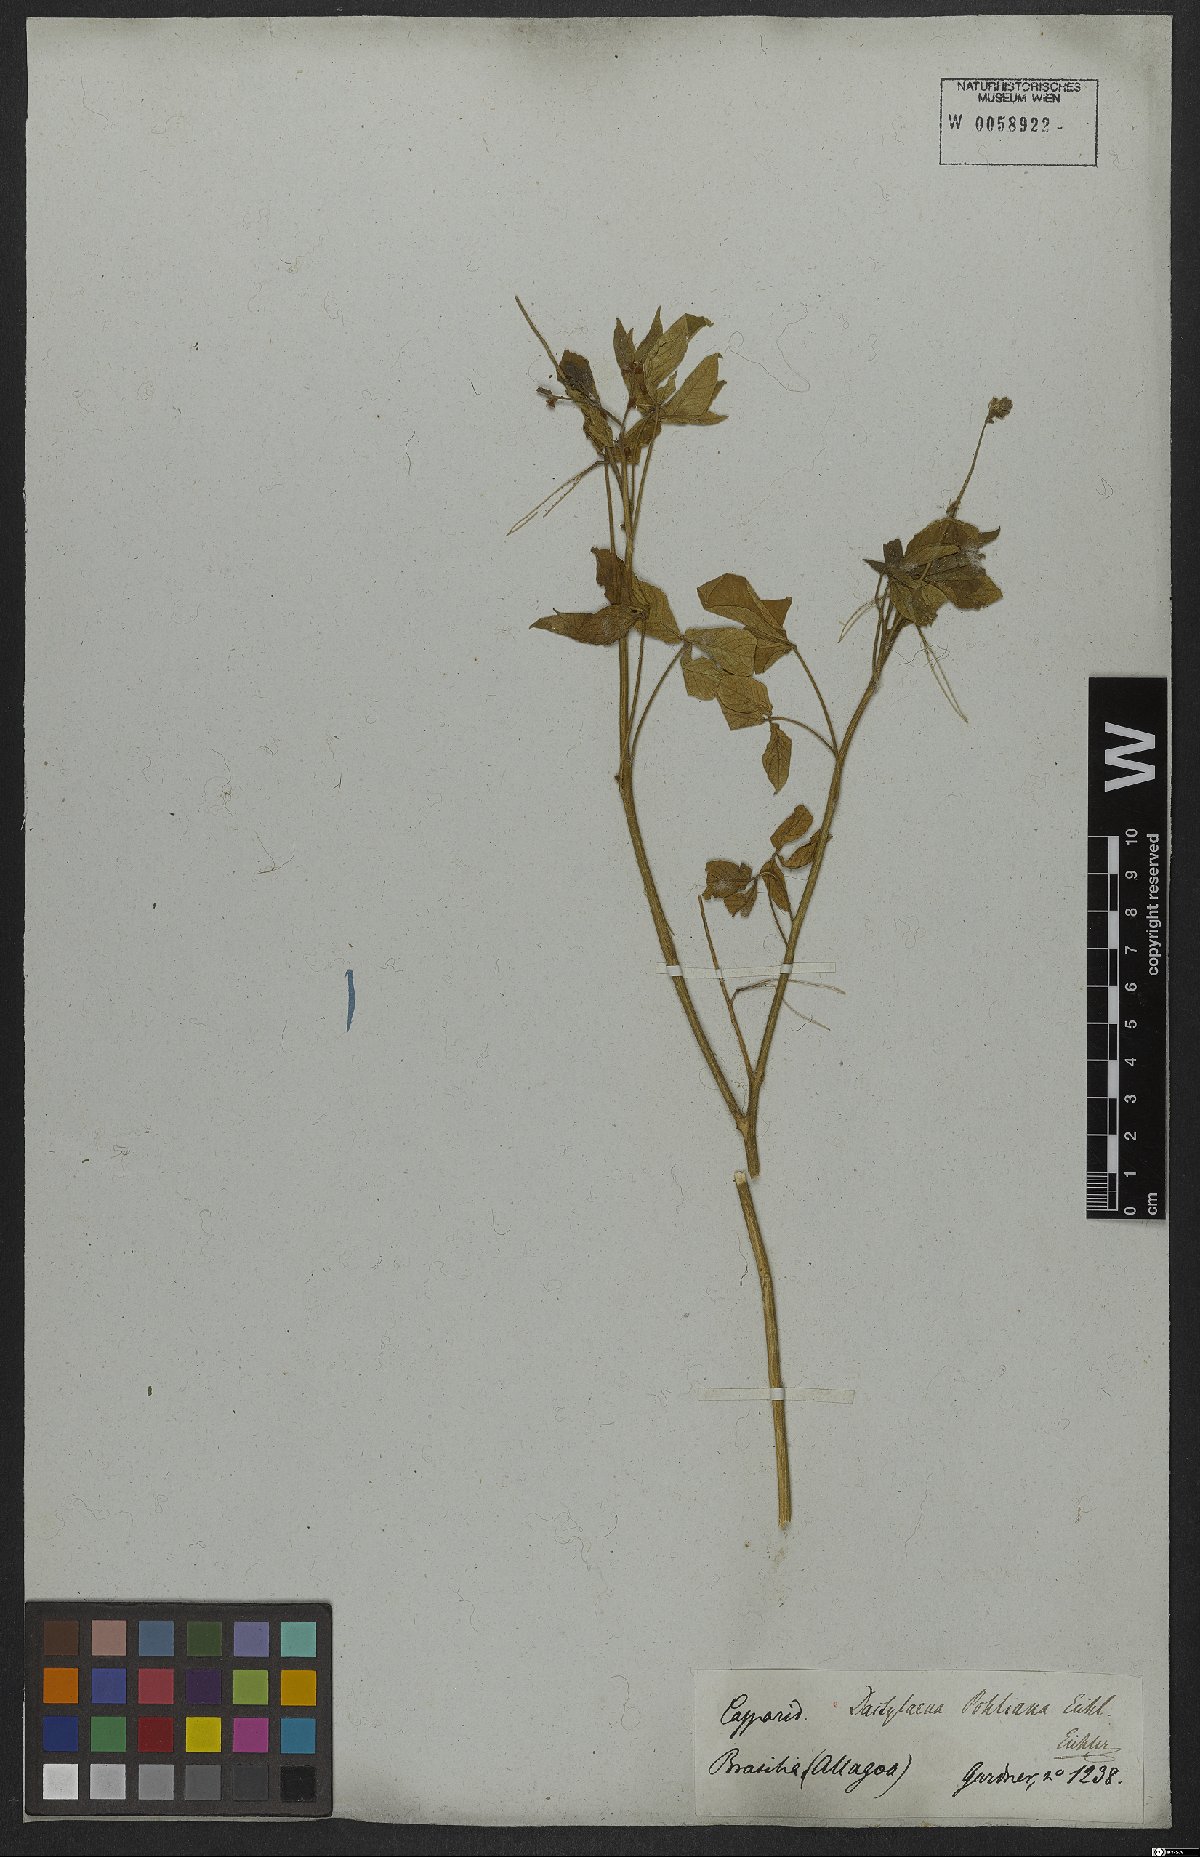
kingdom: Plantae
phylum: Tracheophyta
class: Magnoliopsida
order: Brassicales
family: Cleomaceae
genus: Dactylaena
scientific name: Dactylaena pohliana
